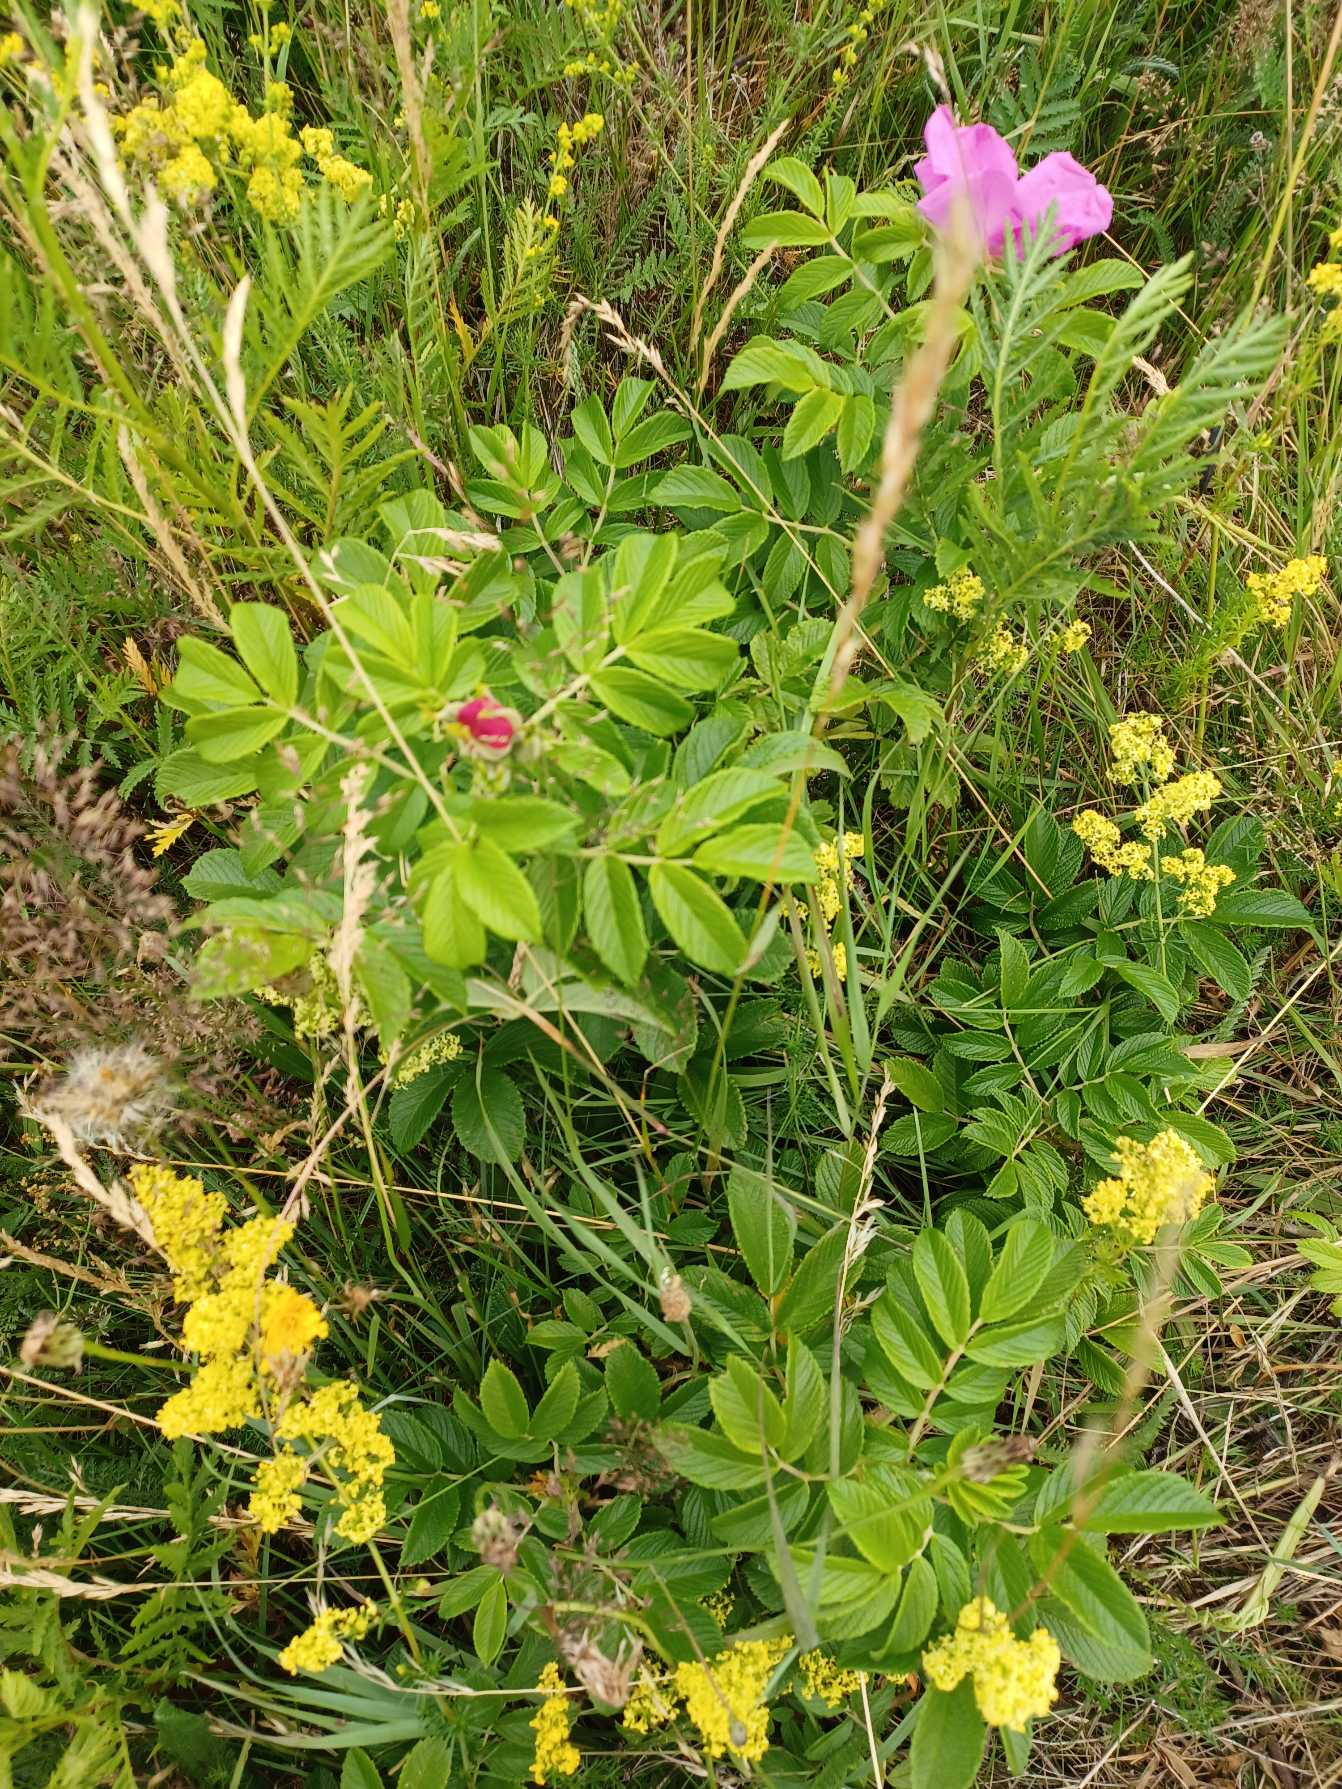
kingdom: Plantae
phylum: Tracheophyta
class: Magnoliopsida
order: Rosales
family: Rosaceae
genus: Rosa
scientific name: Rosa rugosa
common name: Rynket rose
